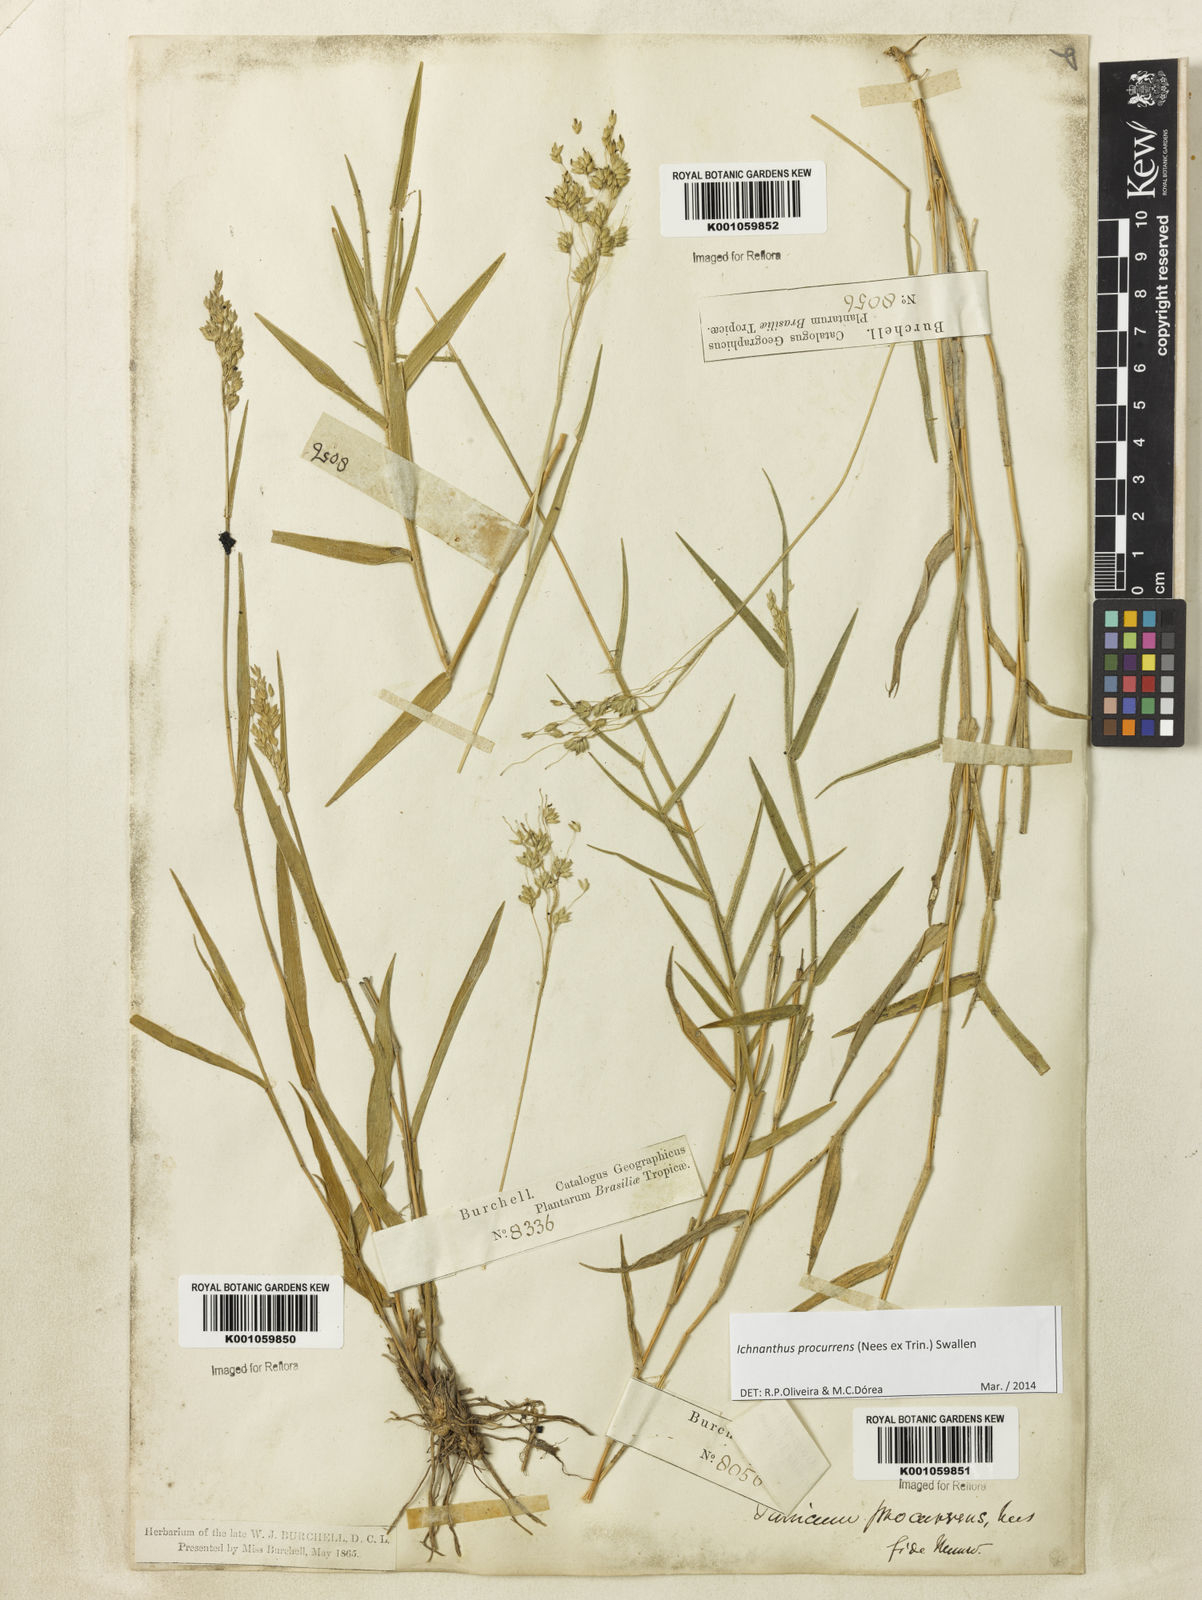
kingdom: Plantae
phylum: Tracheophyta
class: Liliopsida
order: Poales
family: Poaceae
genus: Oedochloa
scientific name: Oedochloa procurrens
